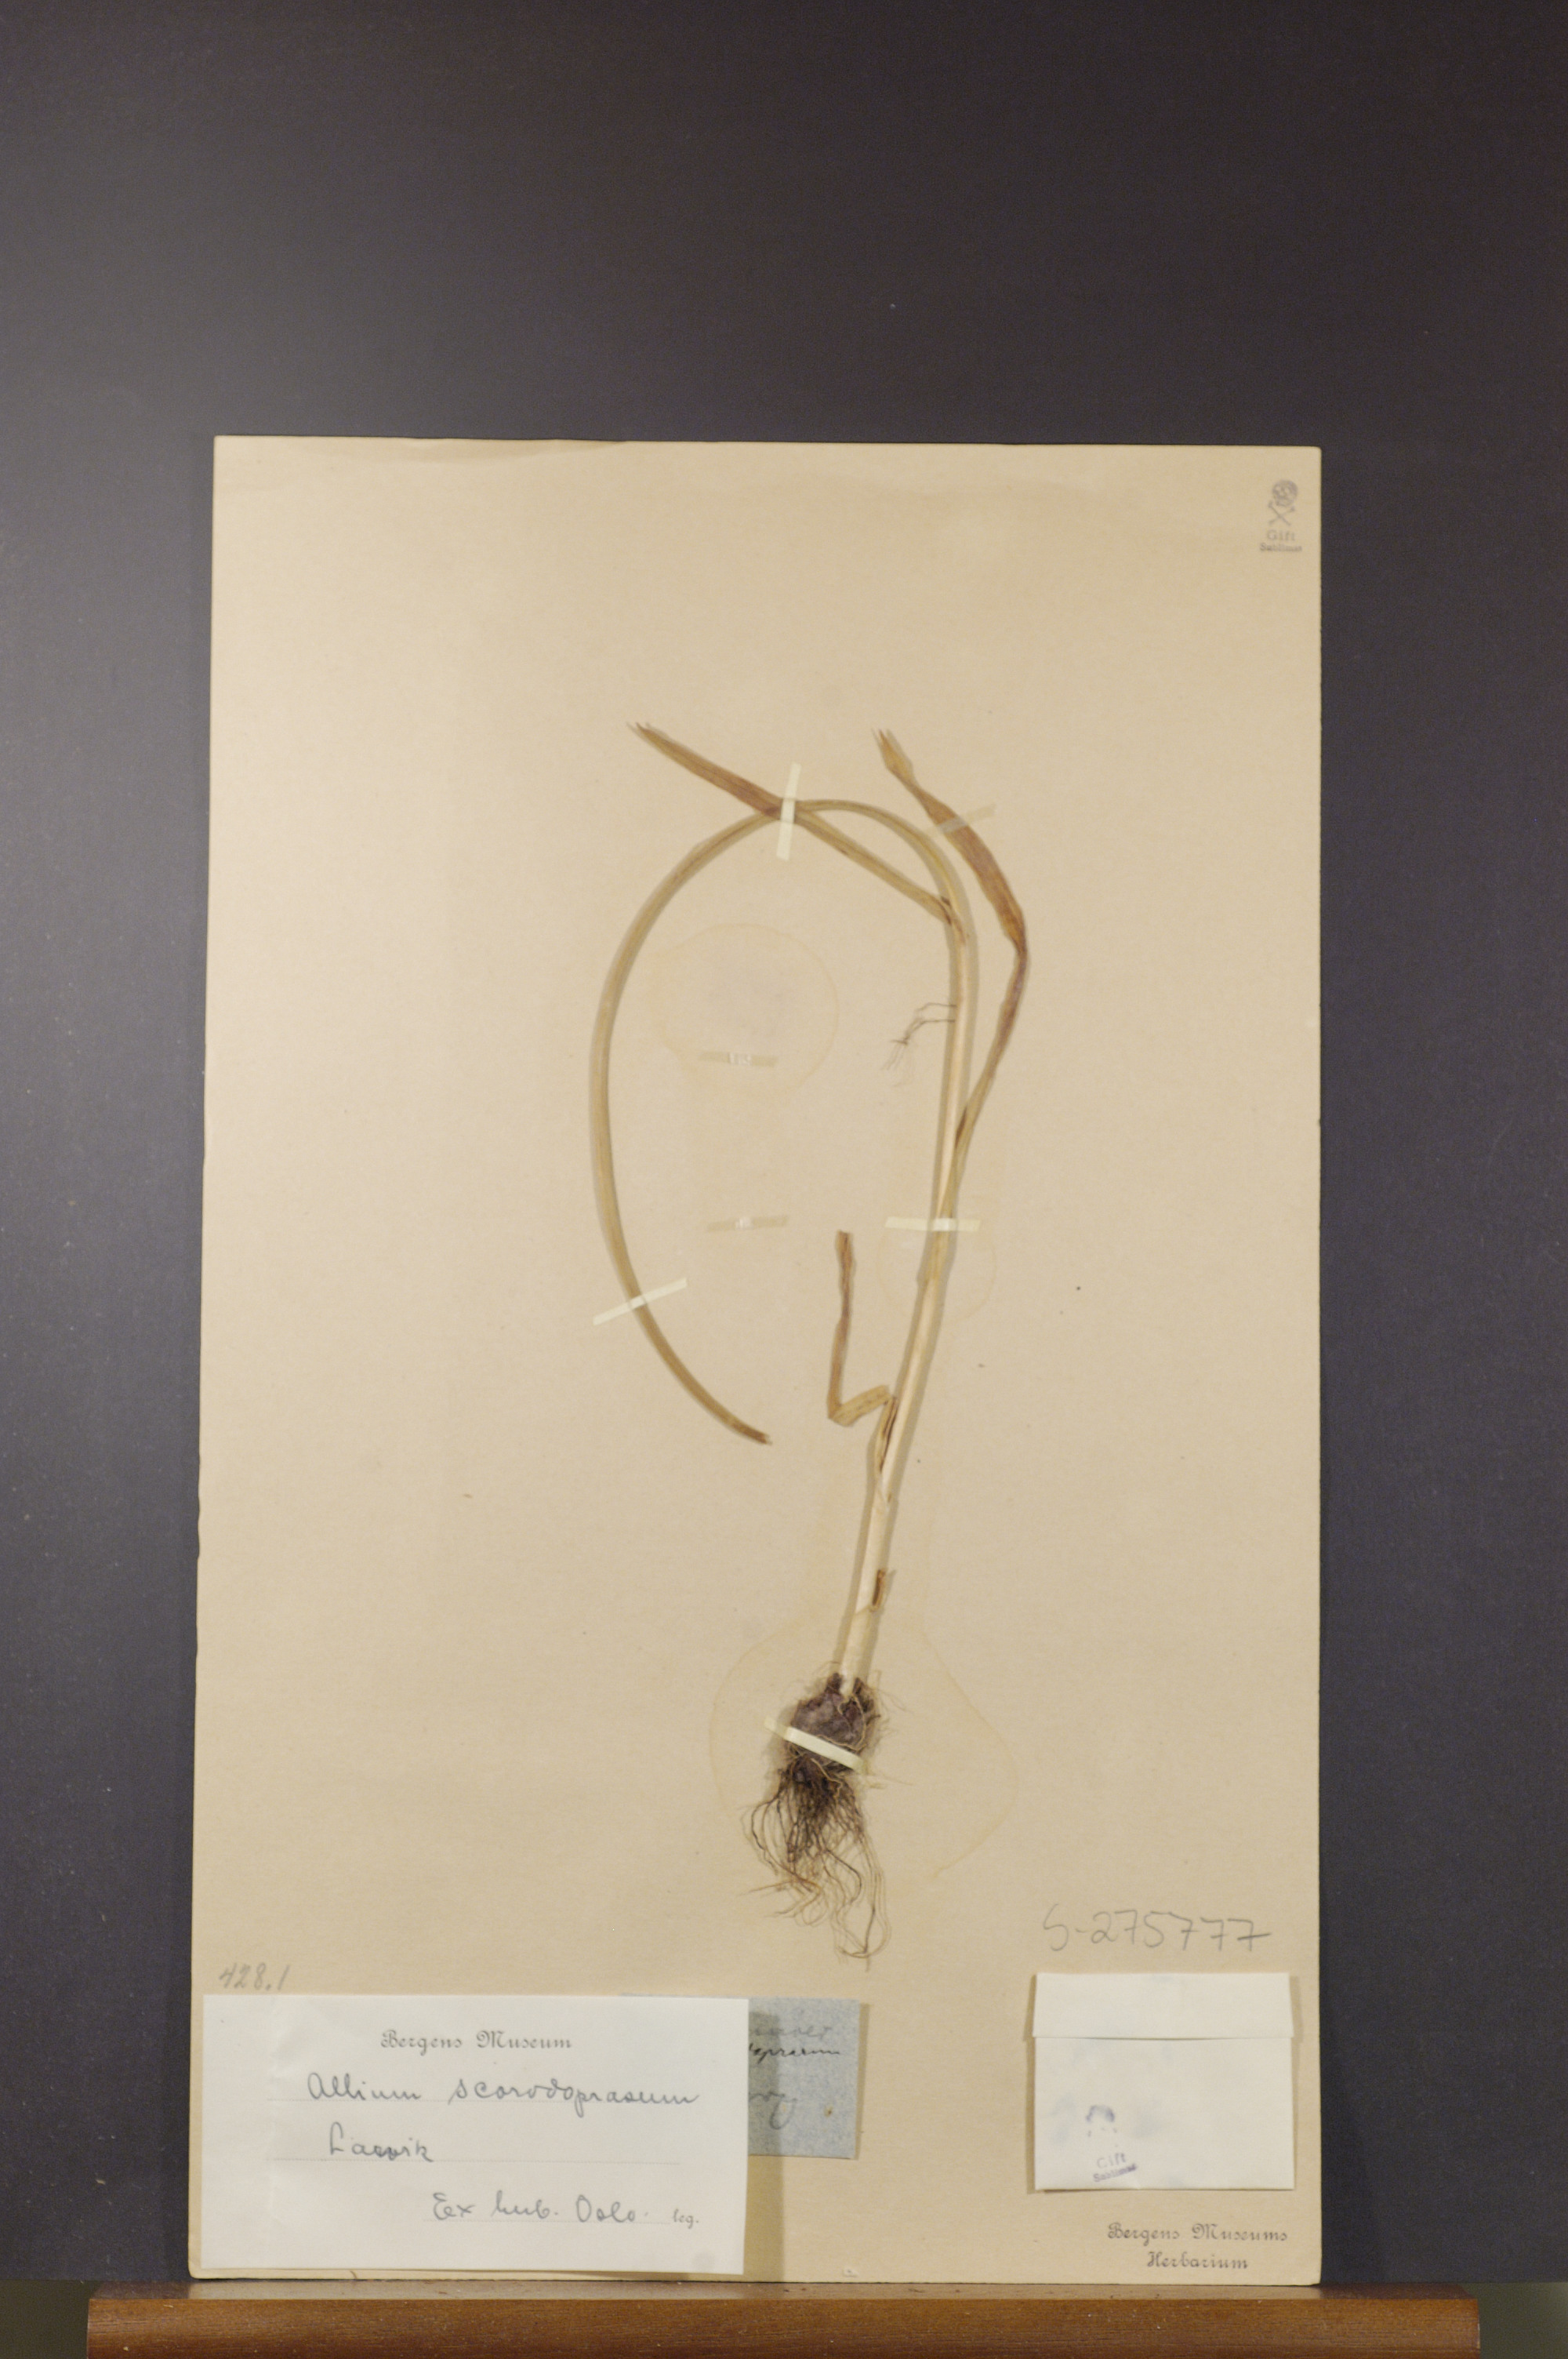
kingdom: Plantae
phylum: Tracheophyta
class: Liliopsida
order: Asparagales
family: Amaryllidaceae
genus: Allium
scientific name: Allium scorodoprasum
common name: Sand leek
